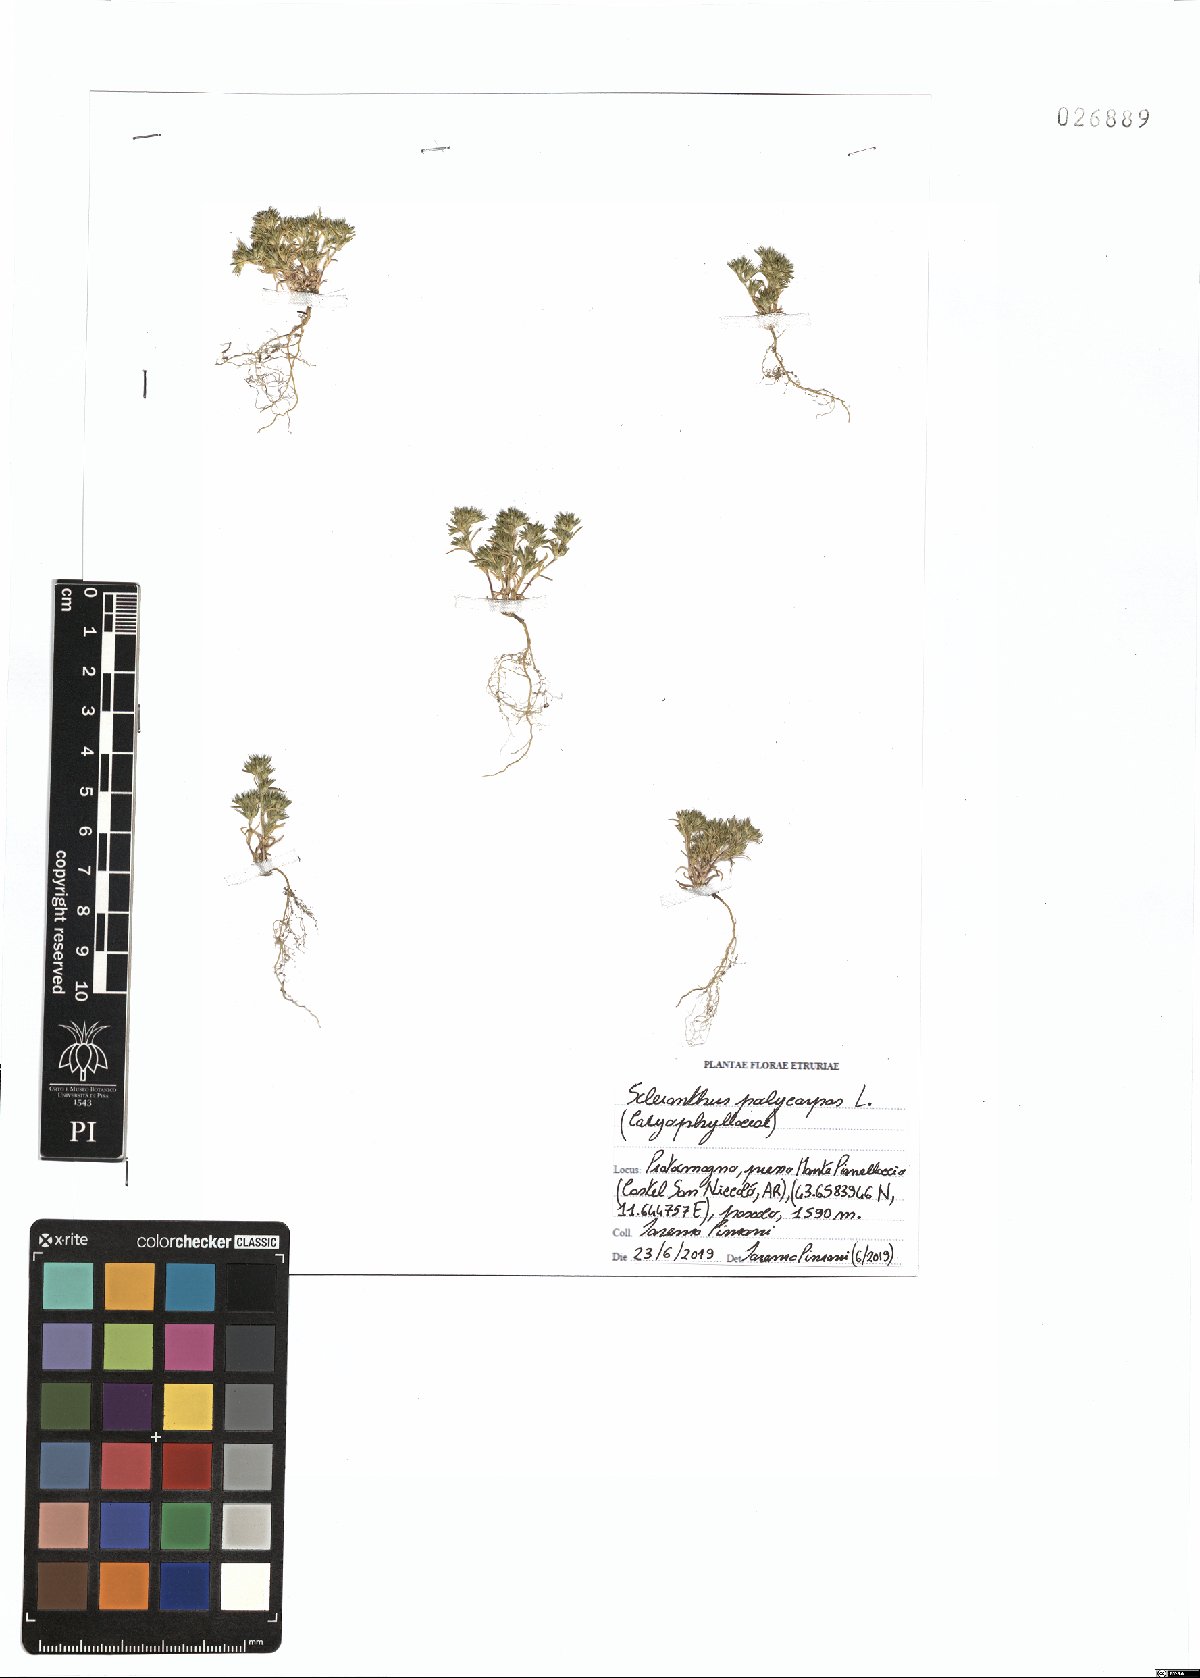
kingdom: Plantae
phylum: Tracheophyta
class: Magnoliopsida
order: Caryophyllales
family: Caryophyllaceae
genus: Scleranthus
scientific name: Scleranthus annuus
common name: Annual knawel
